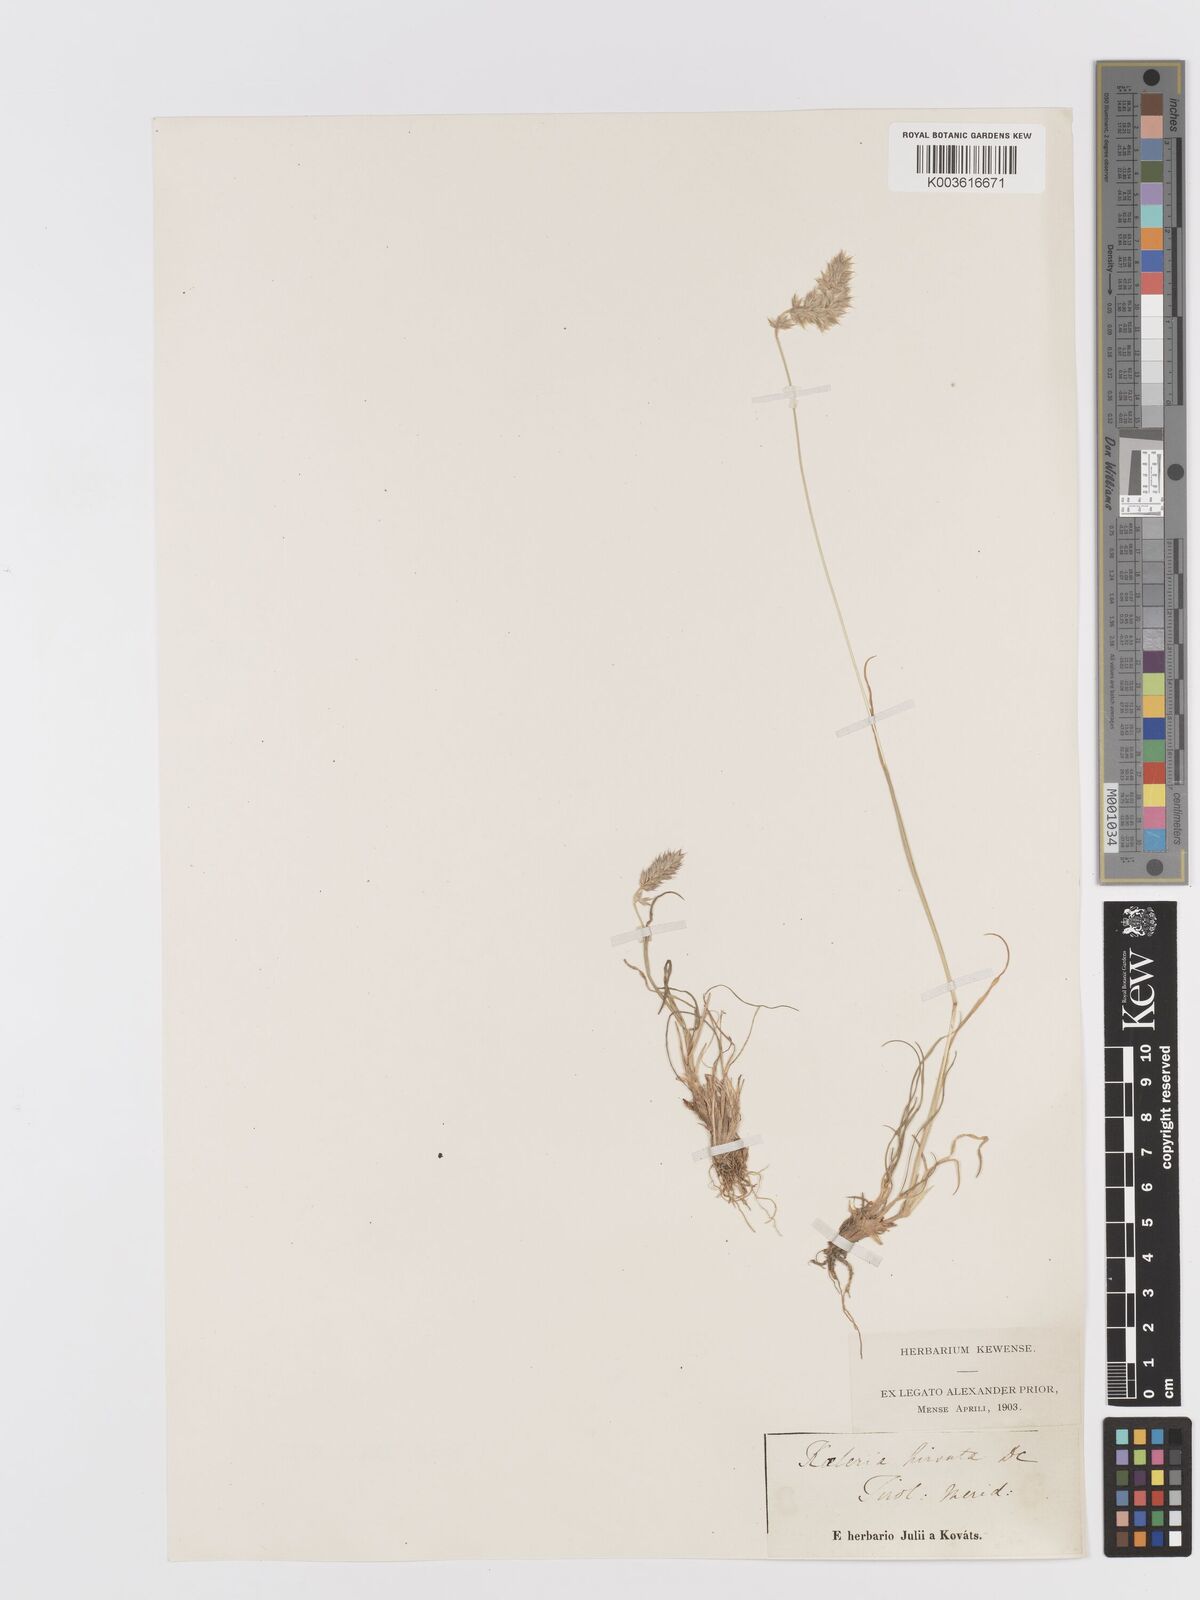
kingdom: Plantae
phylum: Tracheophyta
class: Liliopsida
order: Poales
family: Poaceae
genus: Koeleria
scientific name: Koeleria hirsuta
